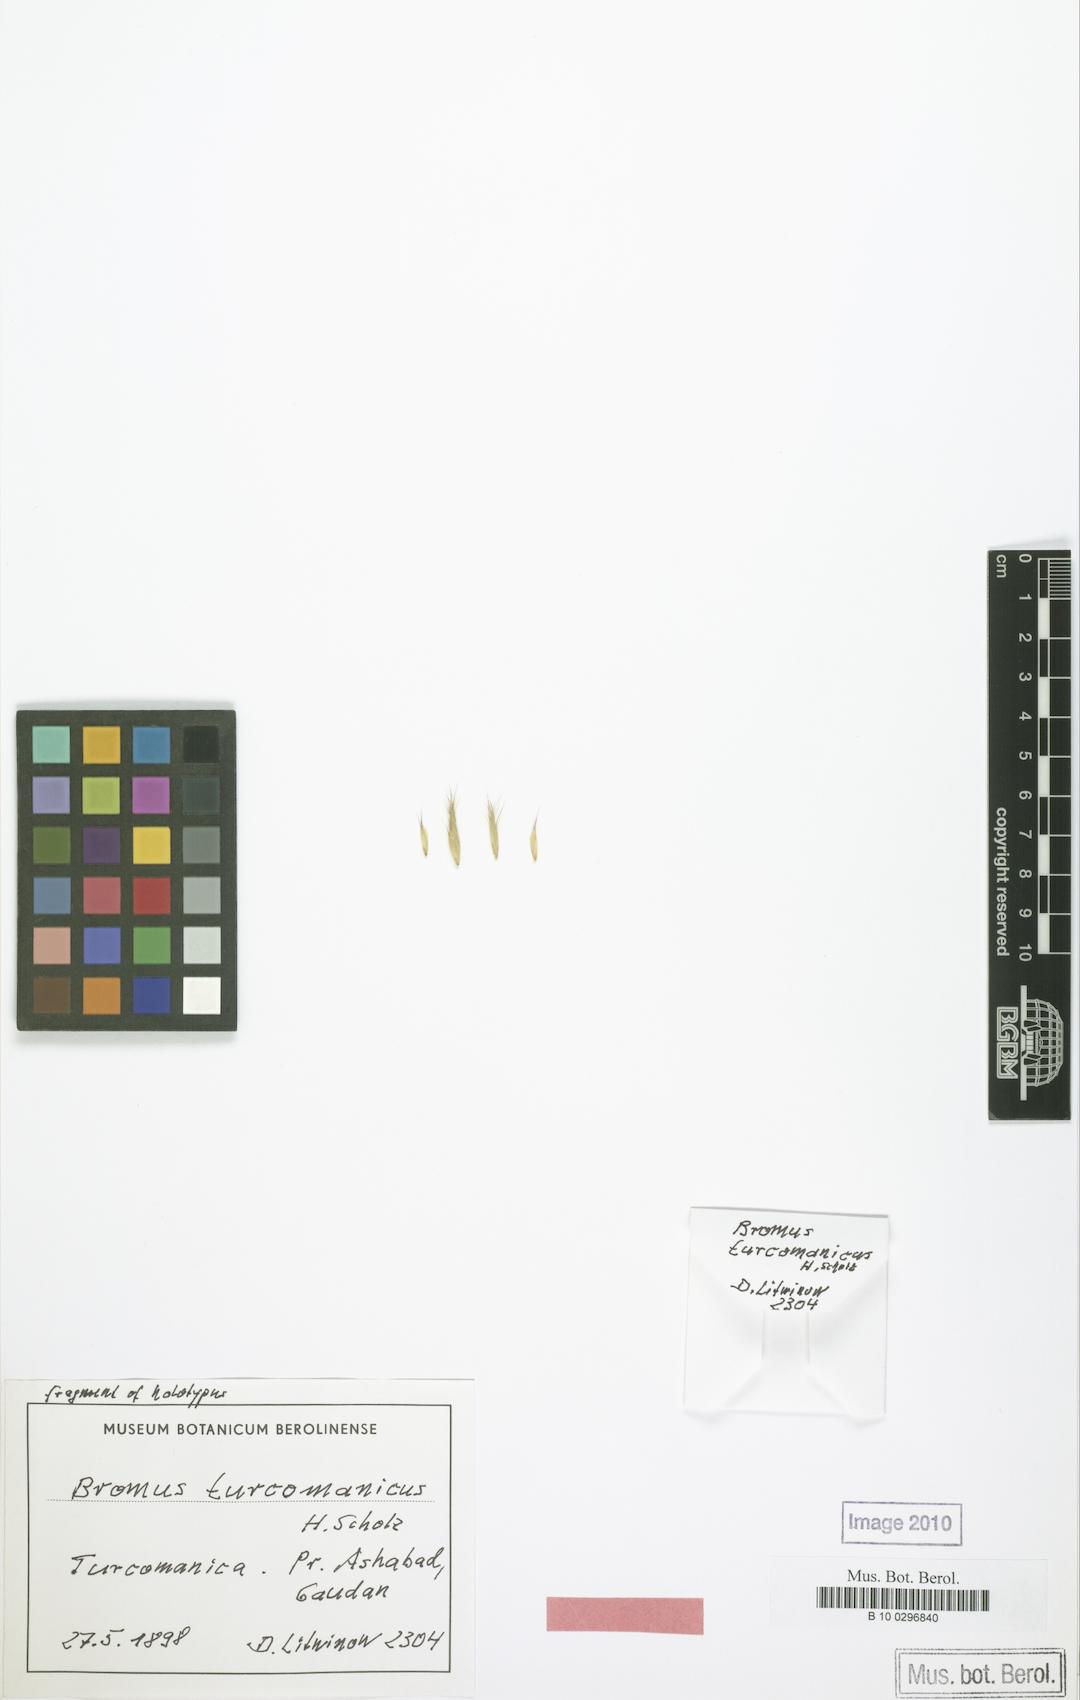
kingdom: Plantae
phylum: Tracheophyta
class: Liliopsida
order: Poales
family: Poaceae
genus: Bromus
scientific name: Bromus danthoniae
